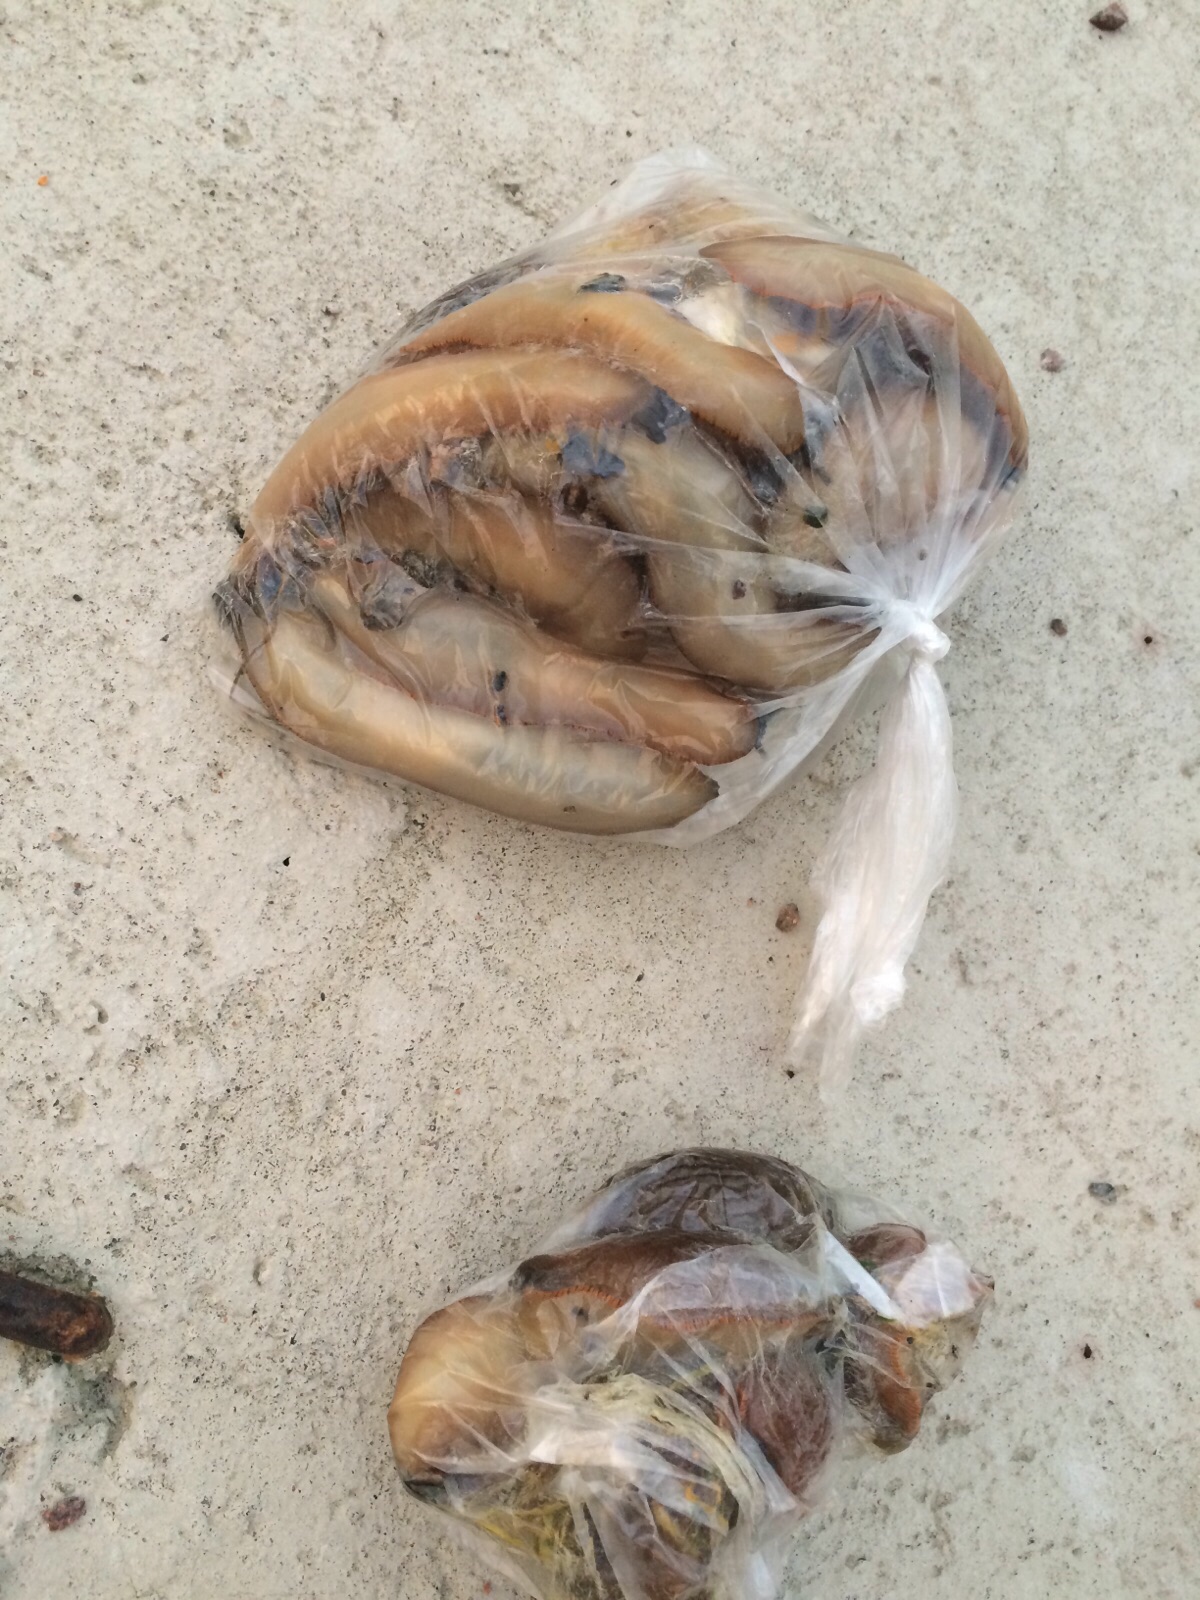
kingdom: Animalia
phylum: Mollusca
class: Gastropoda
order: Stylommatophora
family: Arionidae
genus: Arion
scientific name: Arion vulgaris
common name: Lusitanian slug
